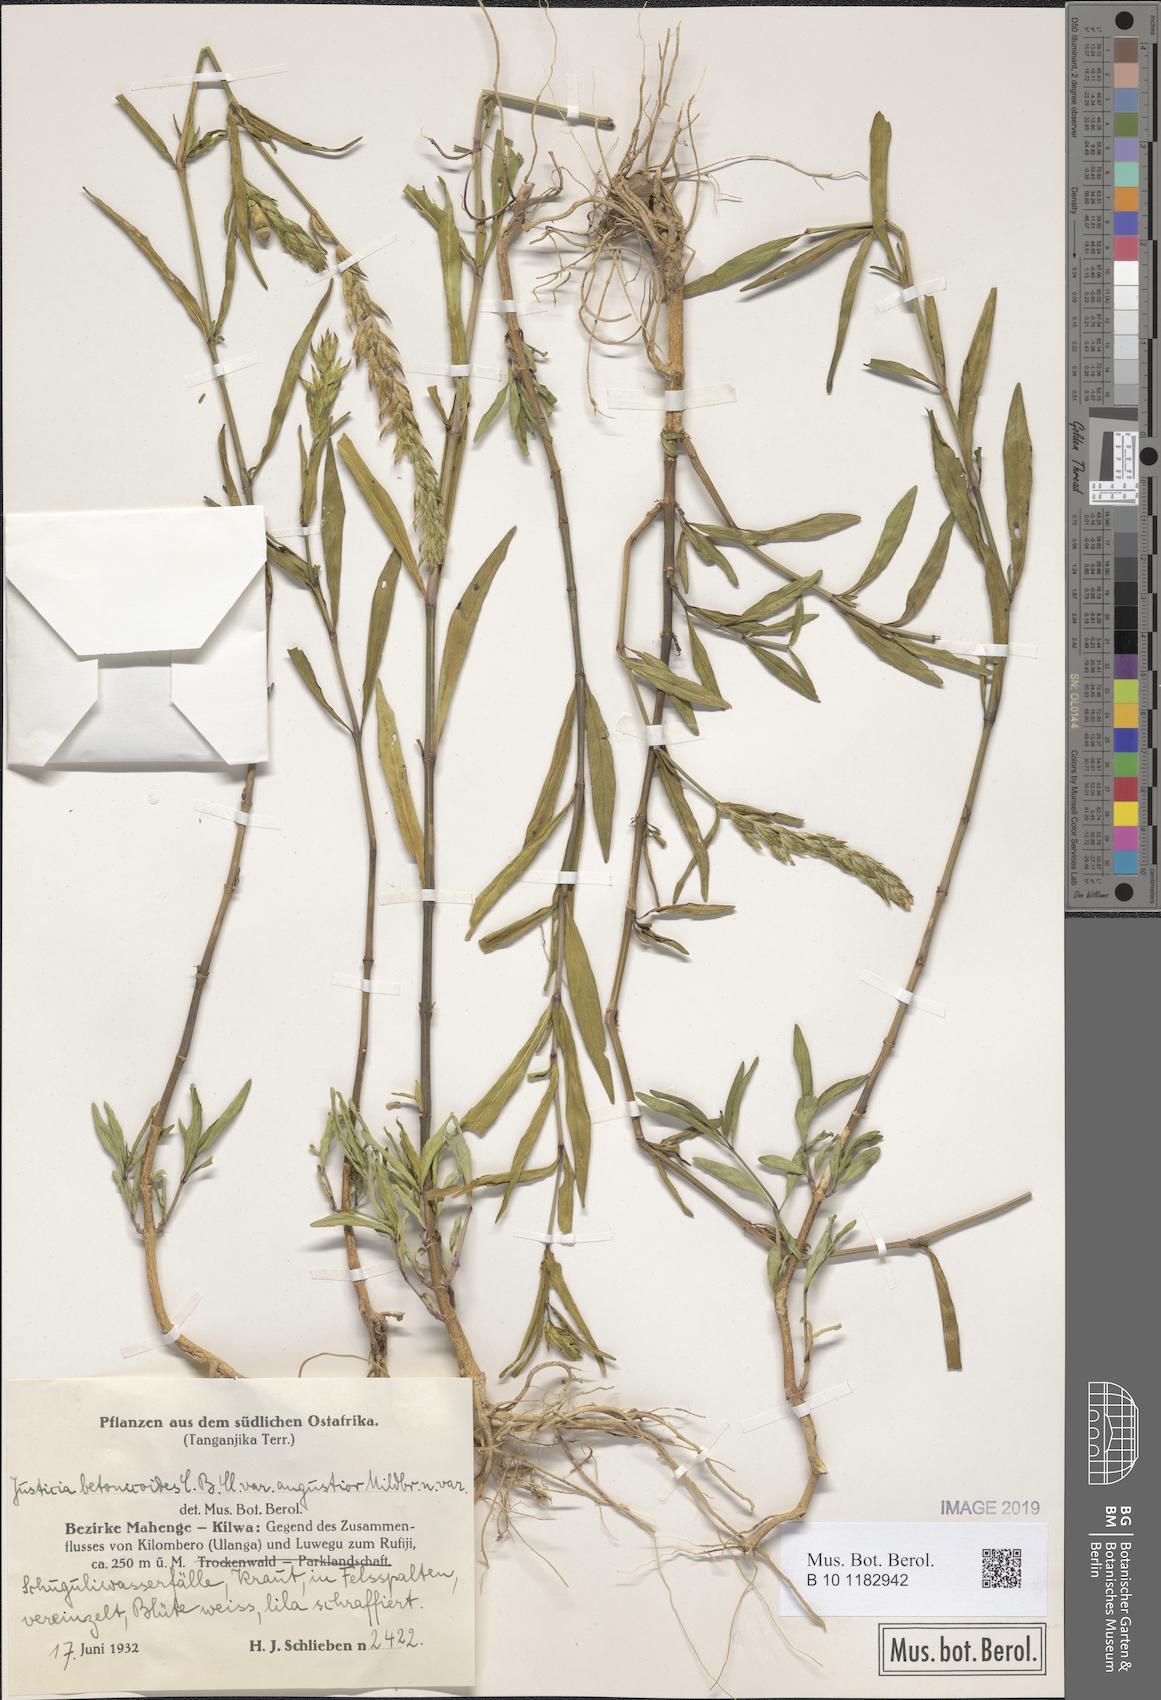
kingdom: Plantae
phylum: Tracheophyta
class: Magnoliopsida
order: Lamiales
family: Acanthaceae
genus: Nicoteba
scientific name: Nicoteba betonica
